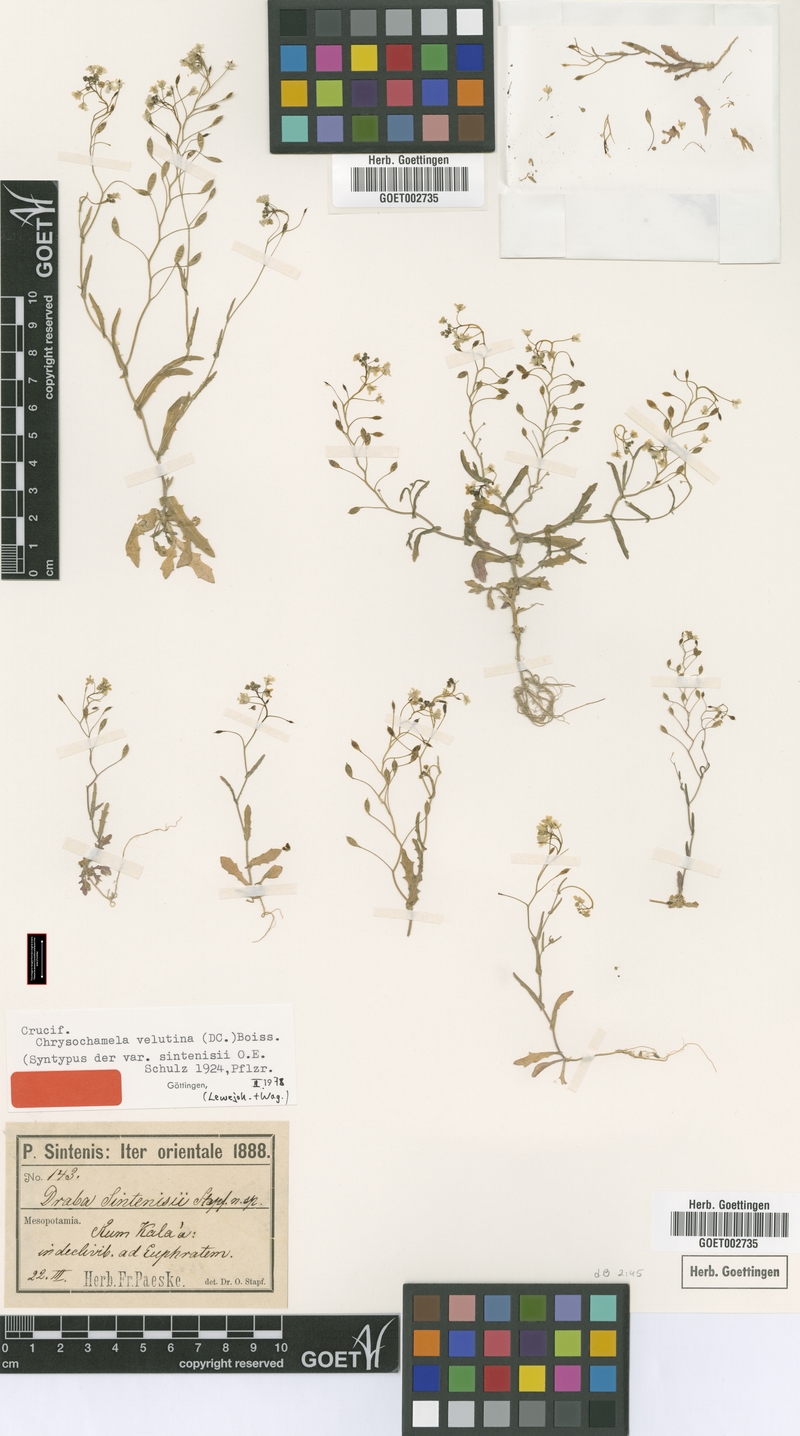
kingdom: Plantae
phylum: Tracheophyta
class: Magnoliopsida
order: Brassicales
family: Brassicaceae
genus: Chrysochamela
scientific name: Chrysochamela velutina
